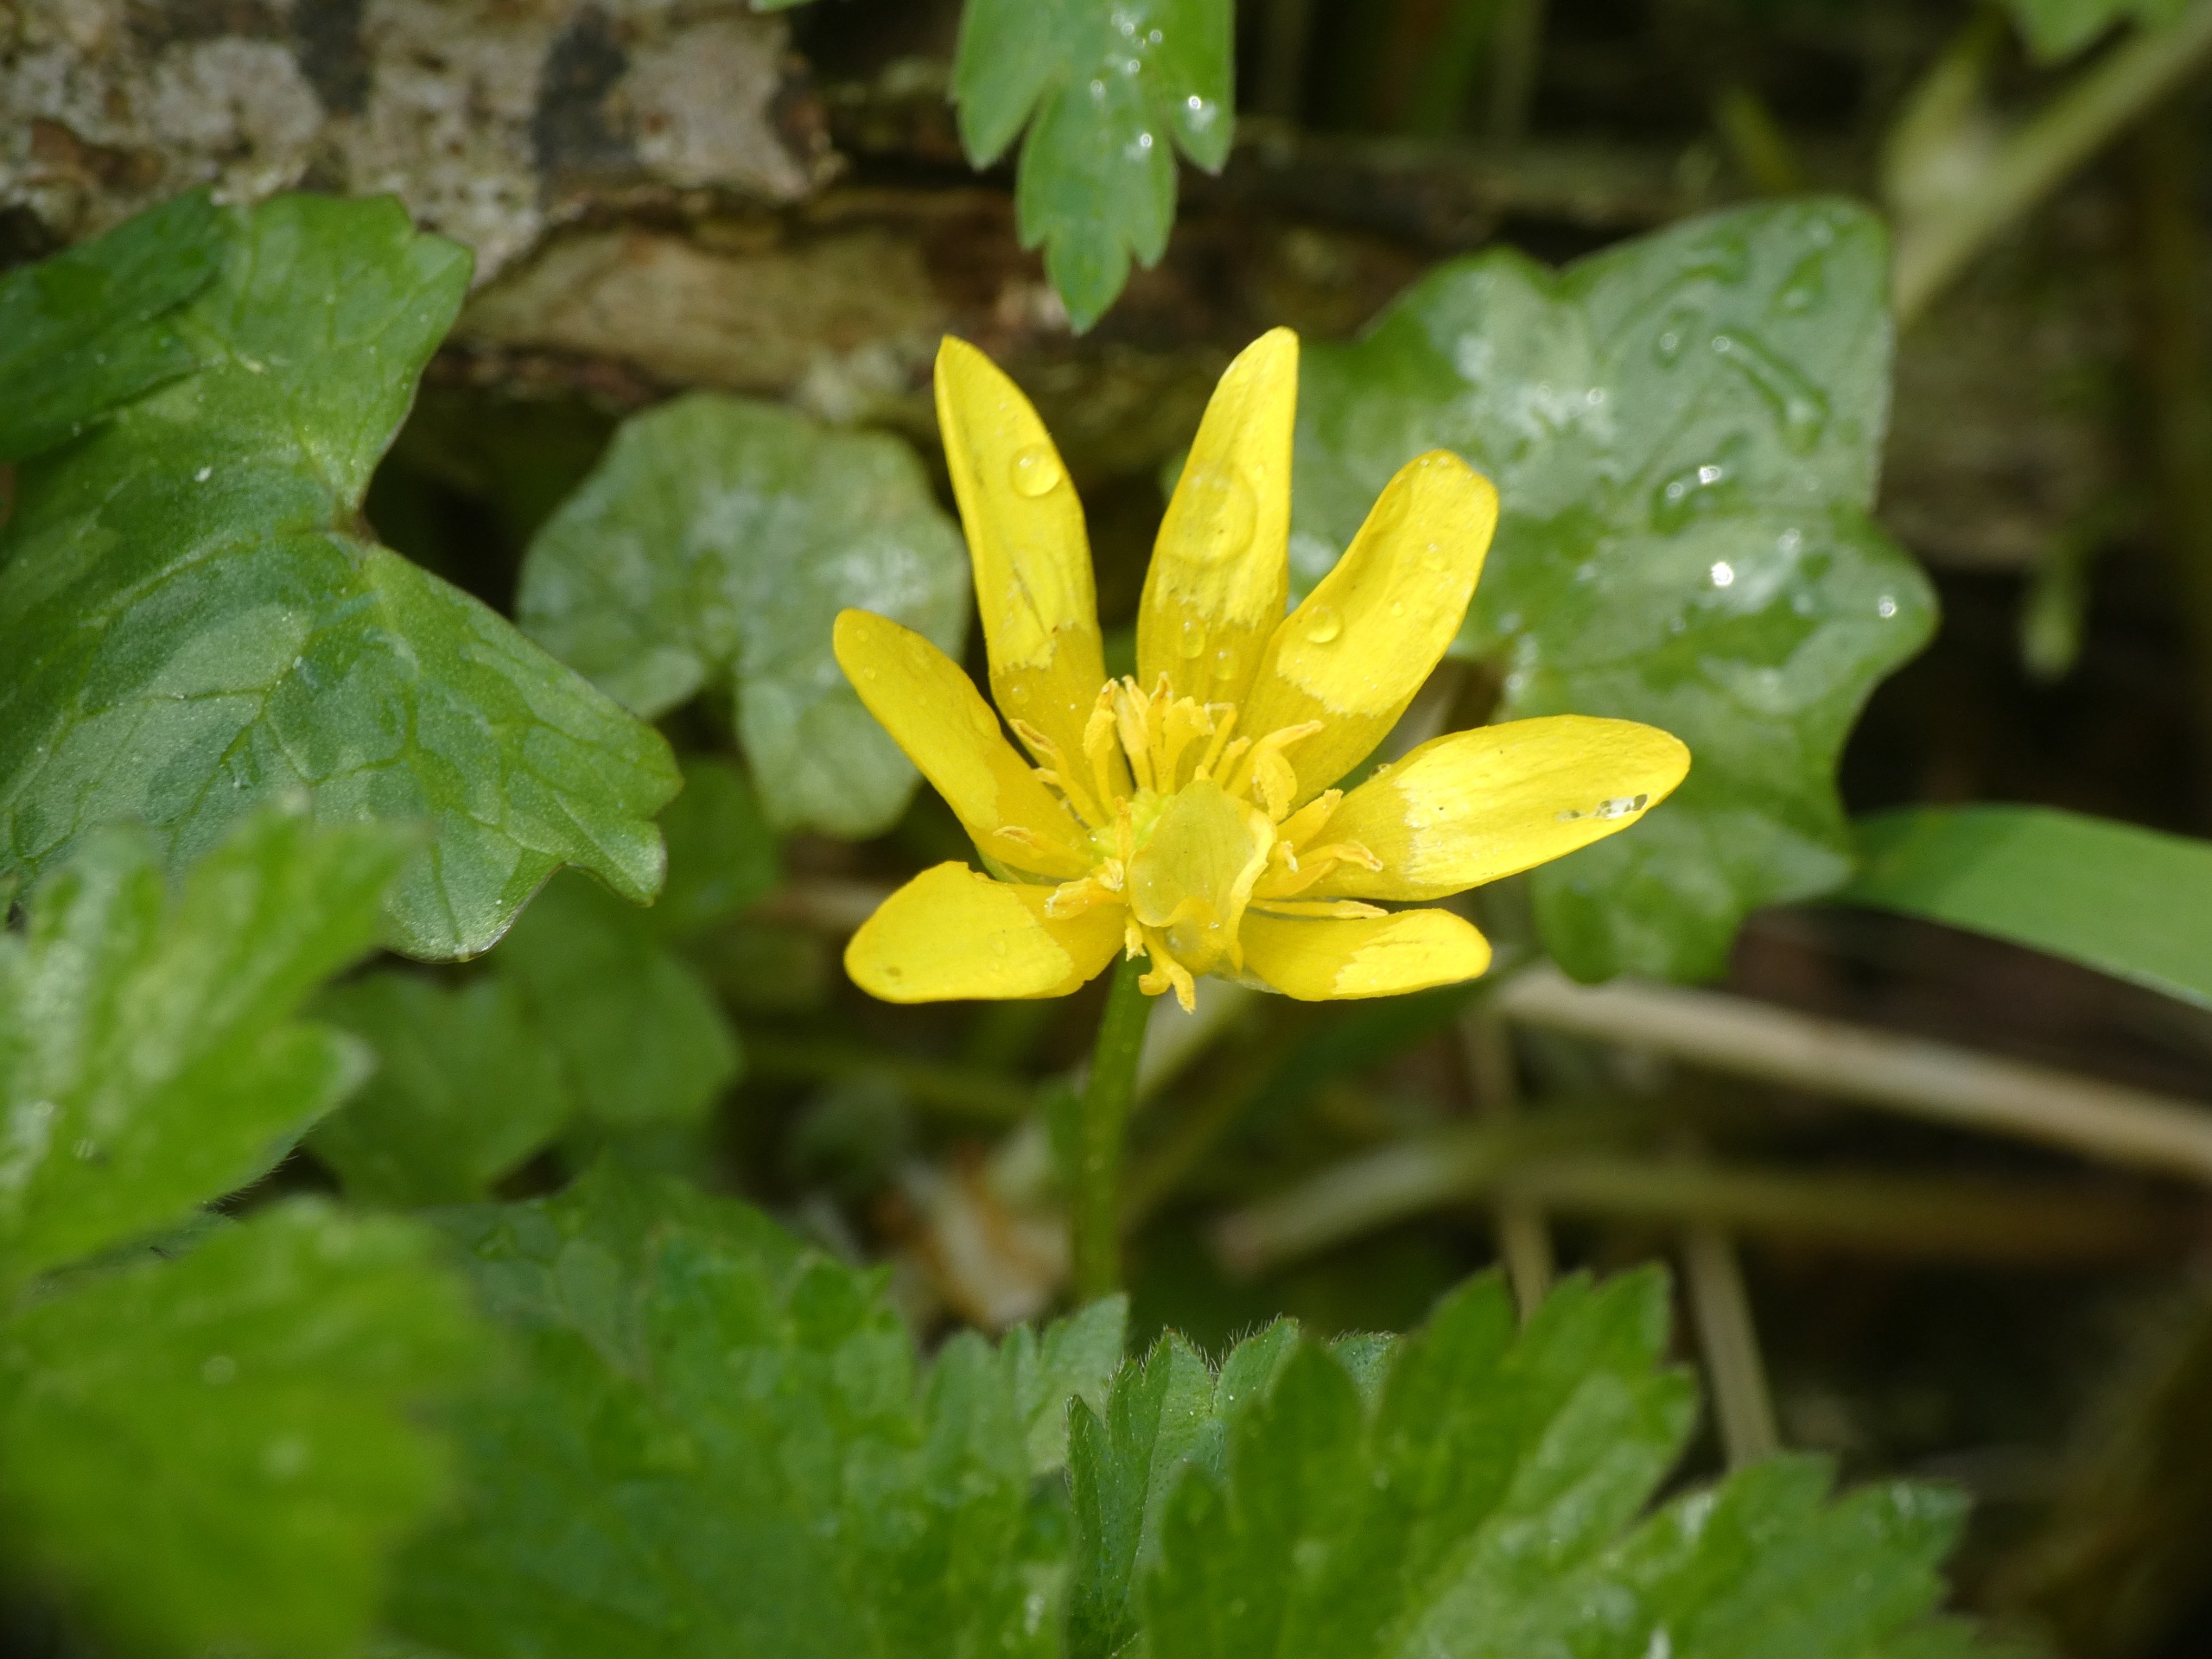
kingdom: Plantae
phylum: Tracheophyta
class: Magnoliopsida
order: Ranunculales
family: Ranunculaceae
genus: Ficaria
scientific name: Ficaria verna
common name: Vorterod
